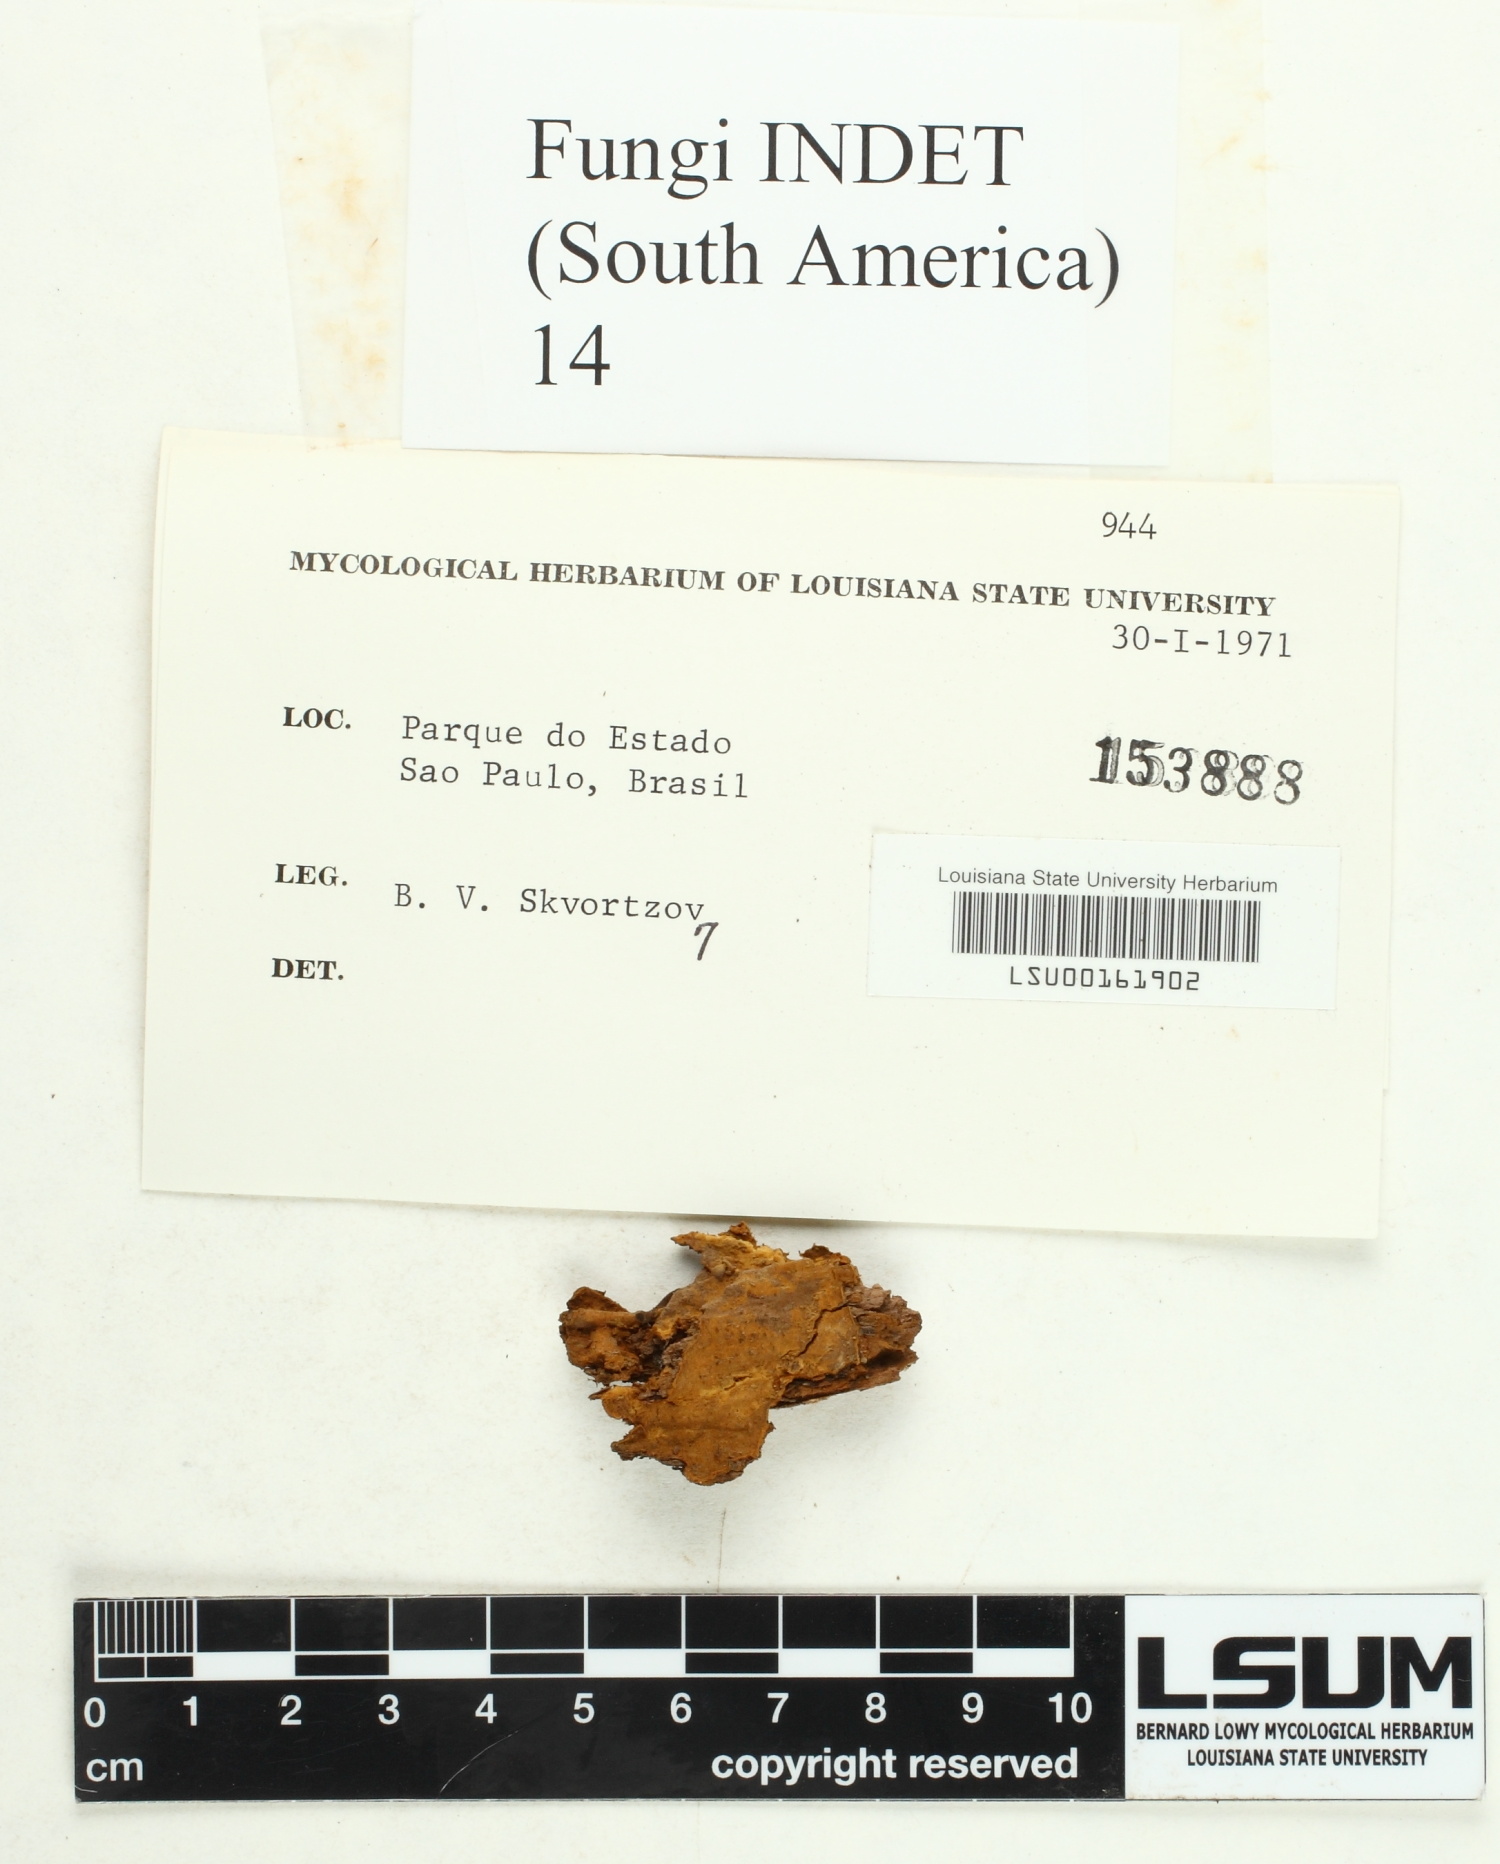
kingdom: Fungi
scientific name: Fungi
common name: Fungi
